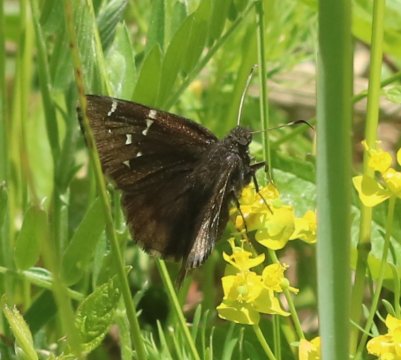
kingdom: Animalia
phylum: Arthropoda
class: Insecta
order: Lepidoptera
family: Hesperiidae
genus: Autochton
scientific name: Autochton
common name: Northern Cloudywing
